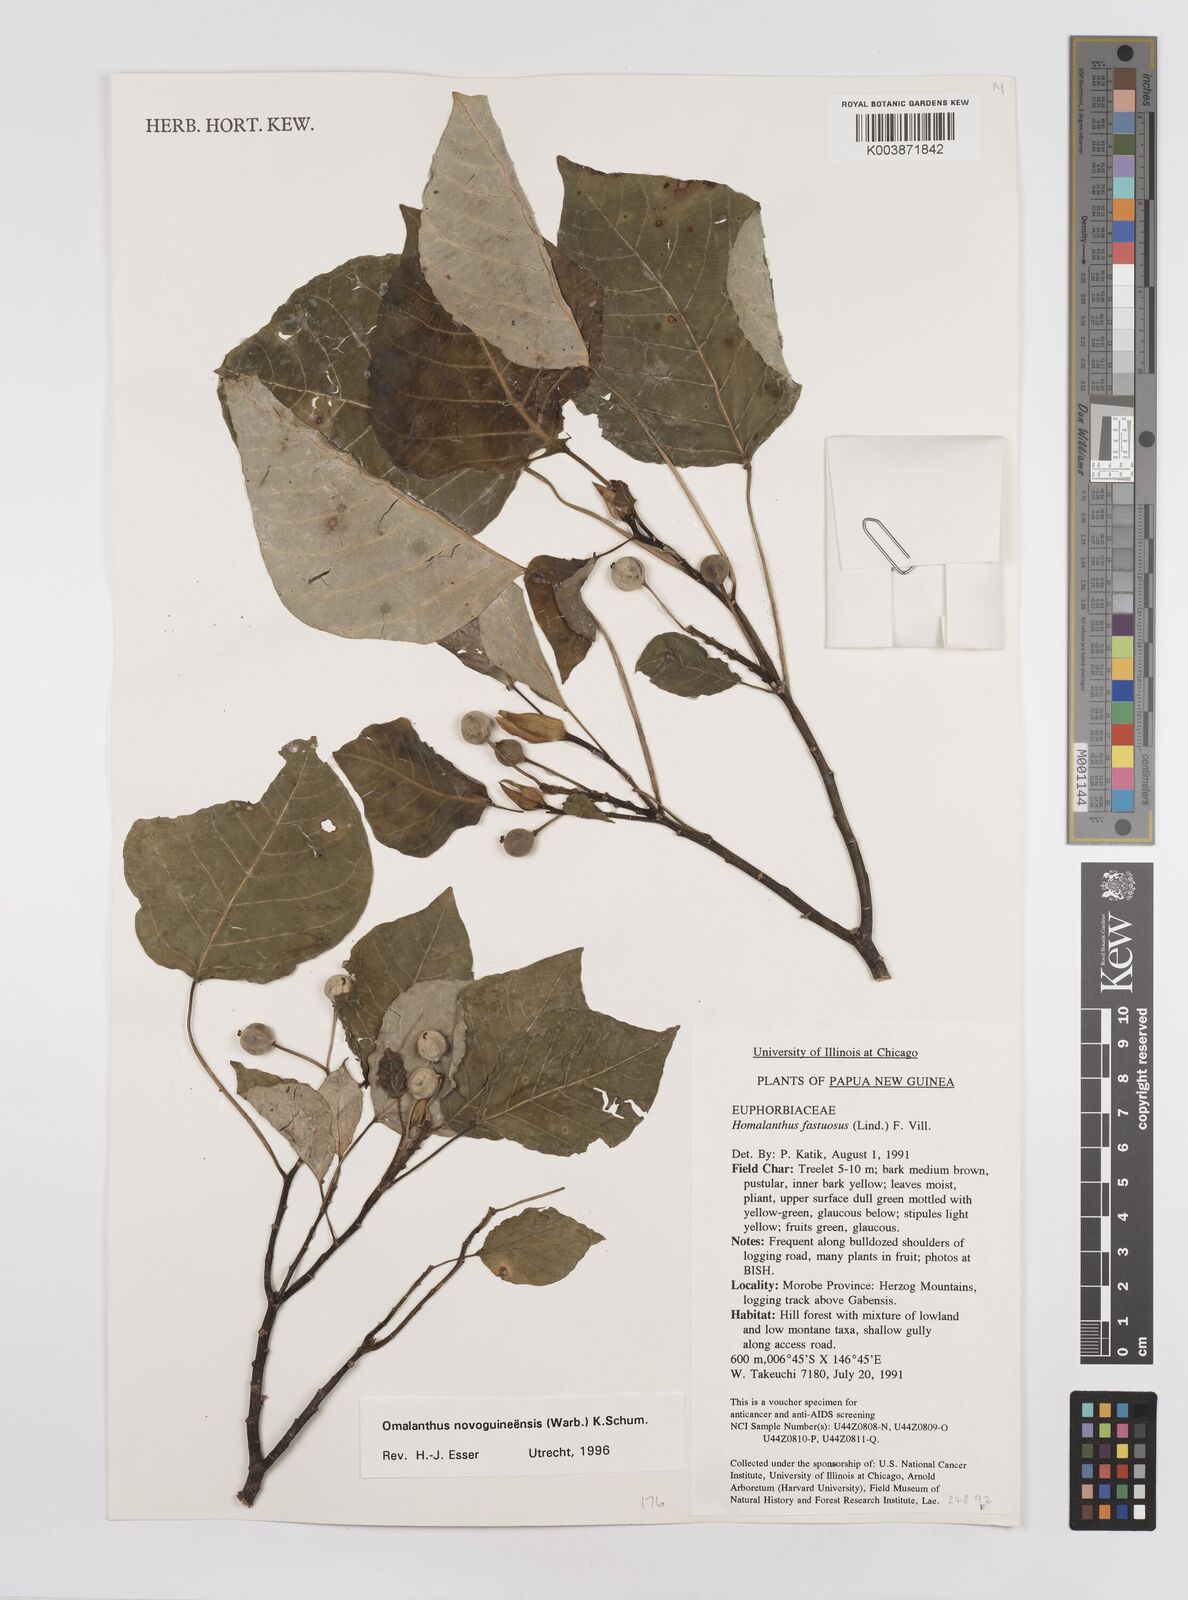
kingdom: Plantae
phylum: Tracheophyta
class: Magnoliopsida
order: Malpighiales
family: Euphorbiaceae
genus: Homalanthus
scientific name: Homalanthus novoguineensis
